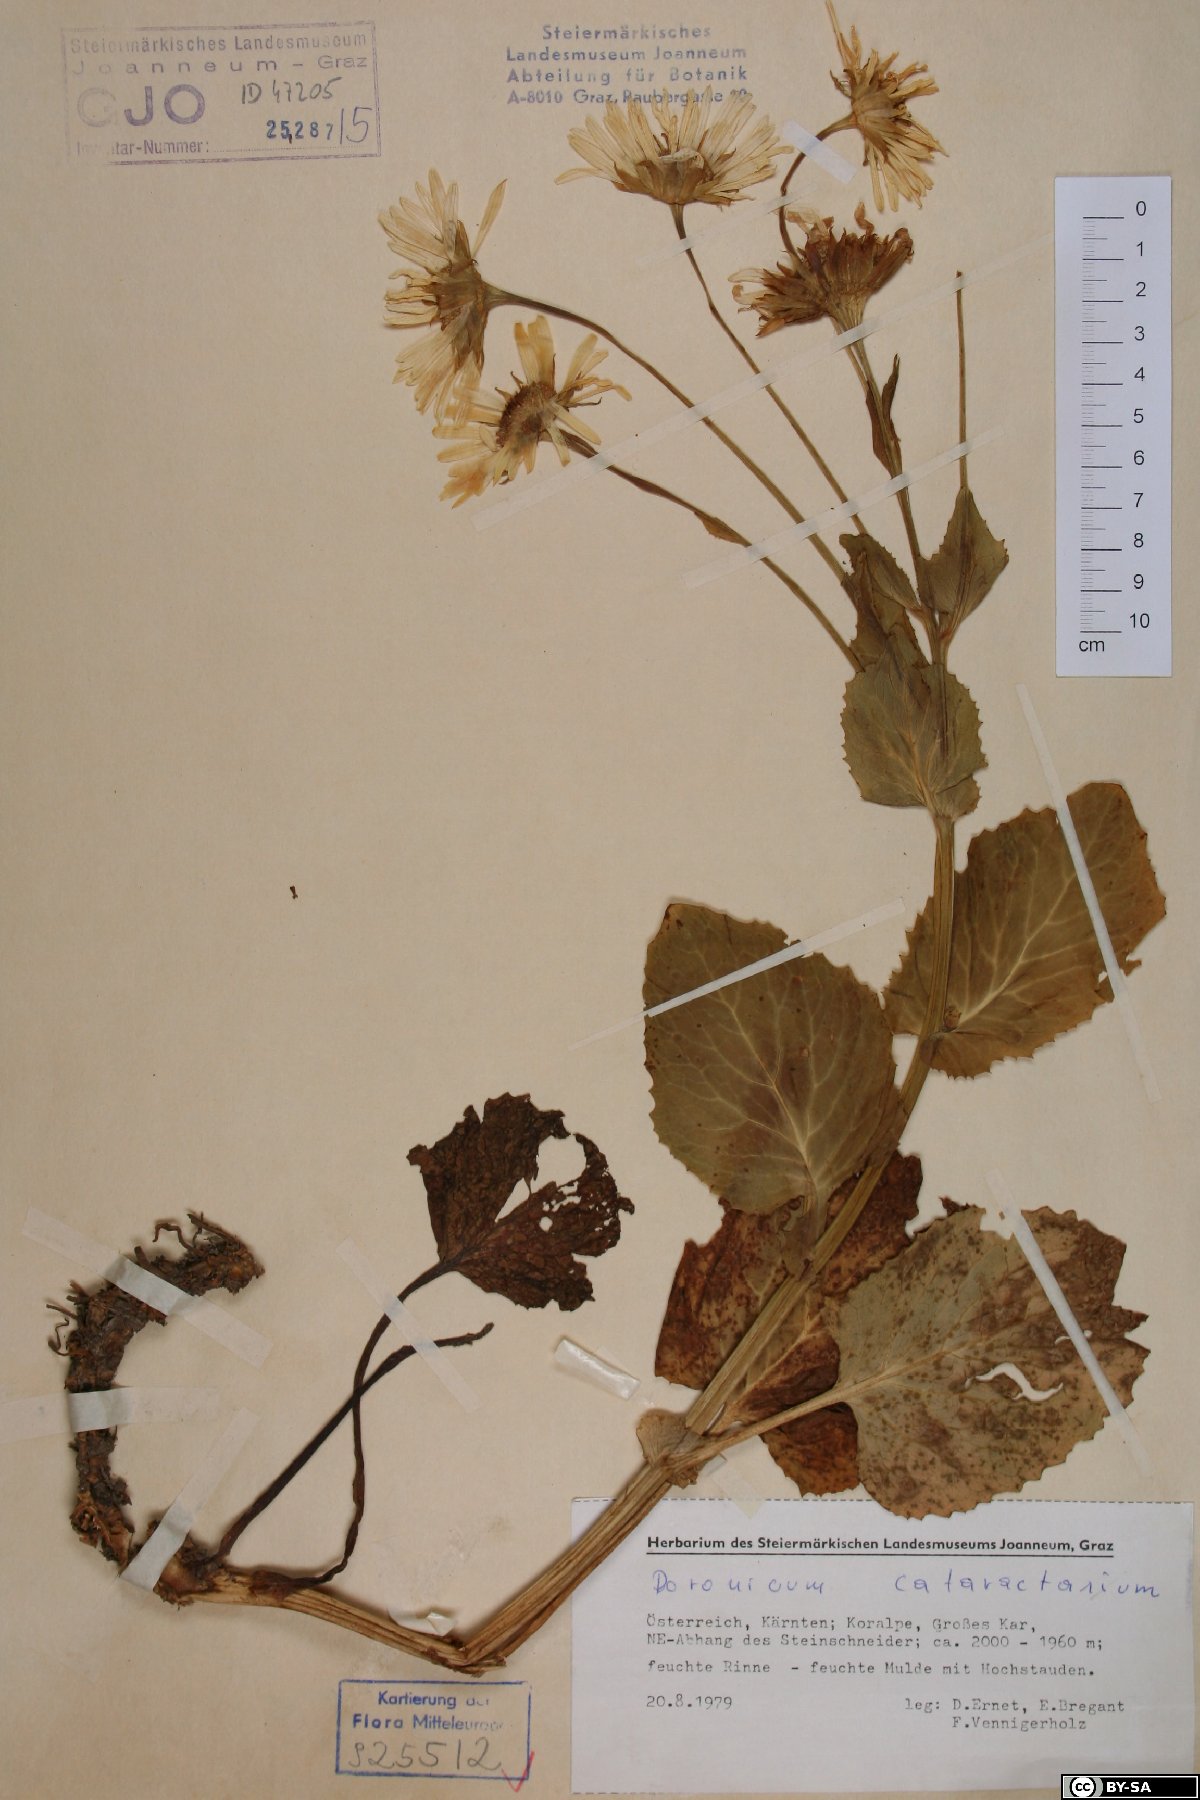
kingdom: Plantae
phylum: Tracheophyta
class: Magnoliopsida
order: Asterales
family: Asteraceae
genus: Doronicum
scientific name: Doronicum cataractarum
